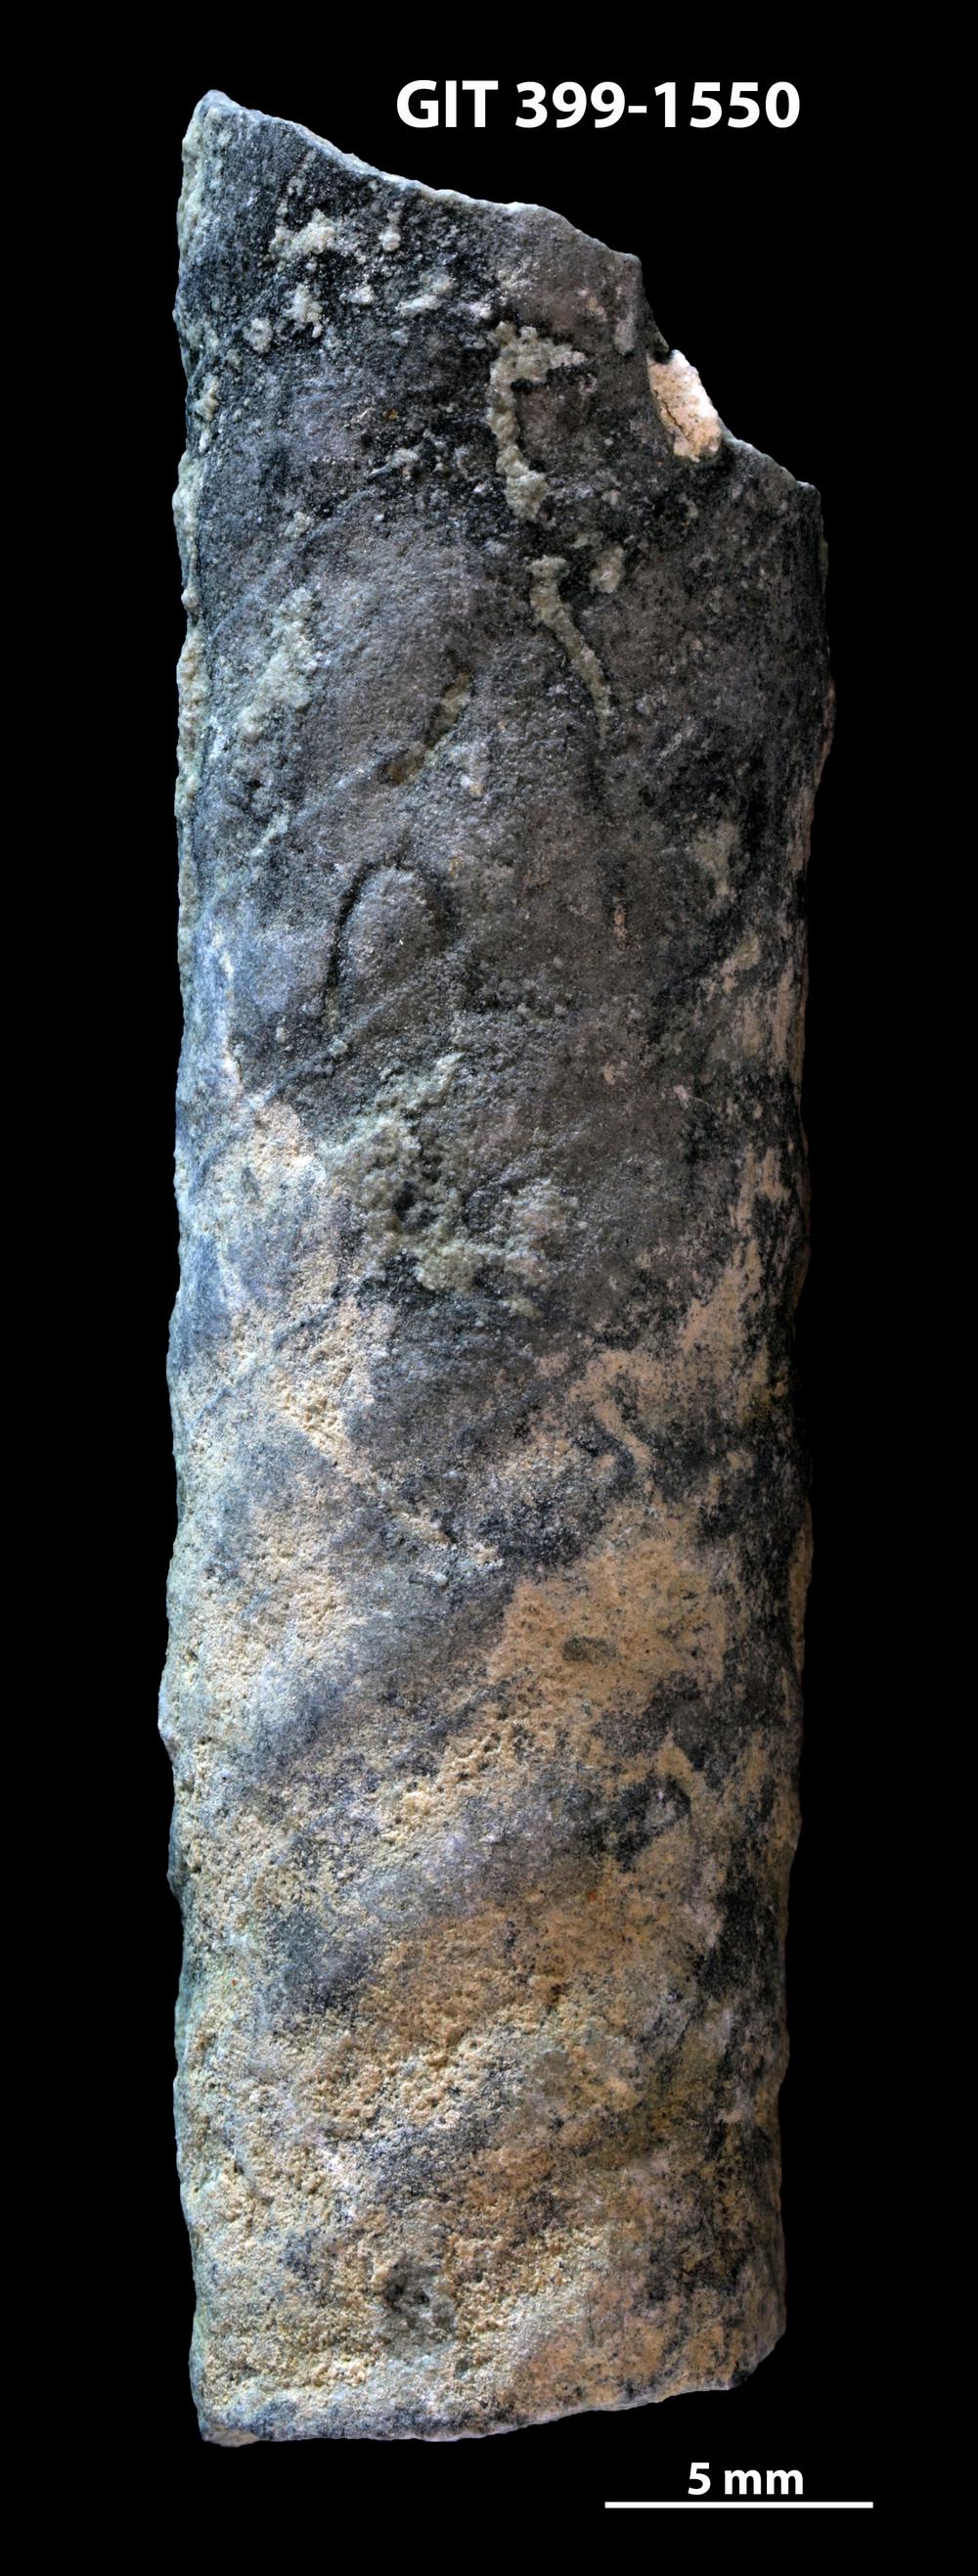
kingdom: Animalia
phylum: Mollusca
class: Cephalopoda
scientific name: Cephalopoda
